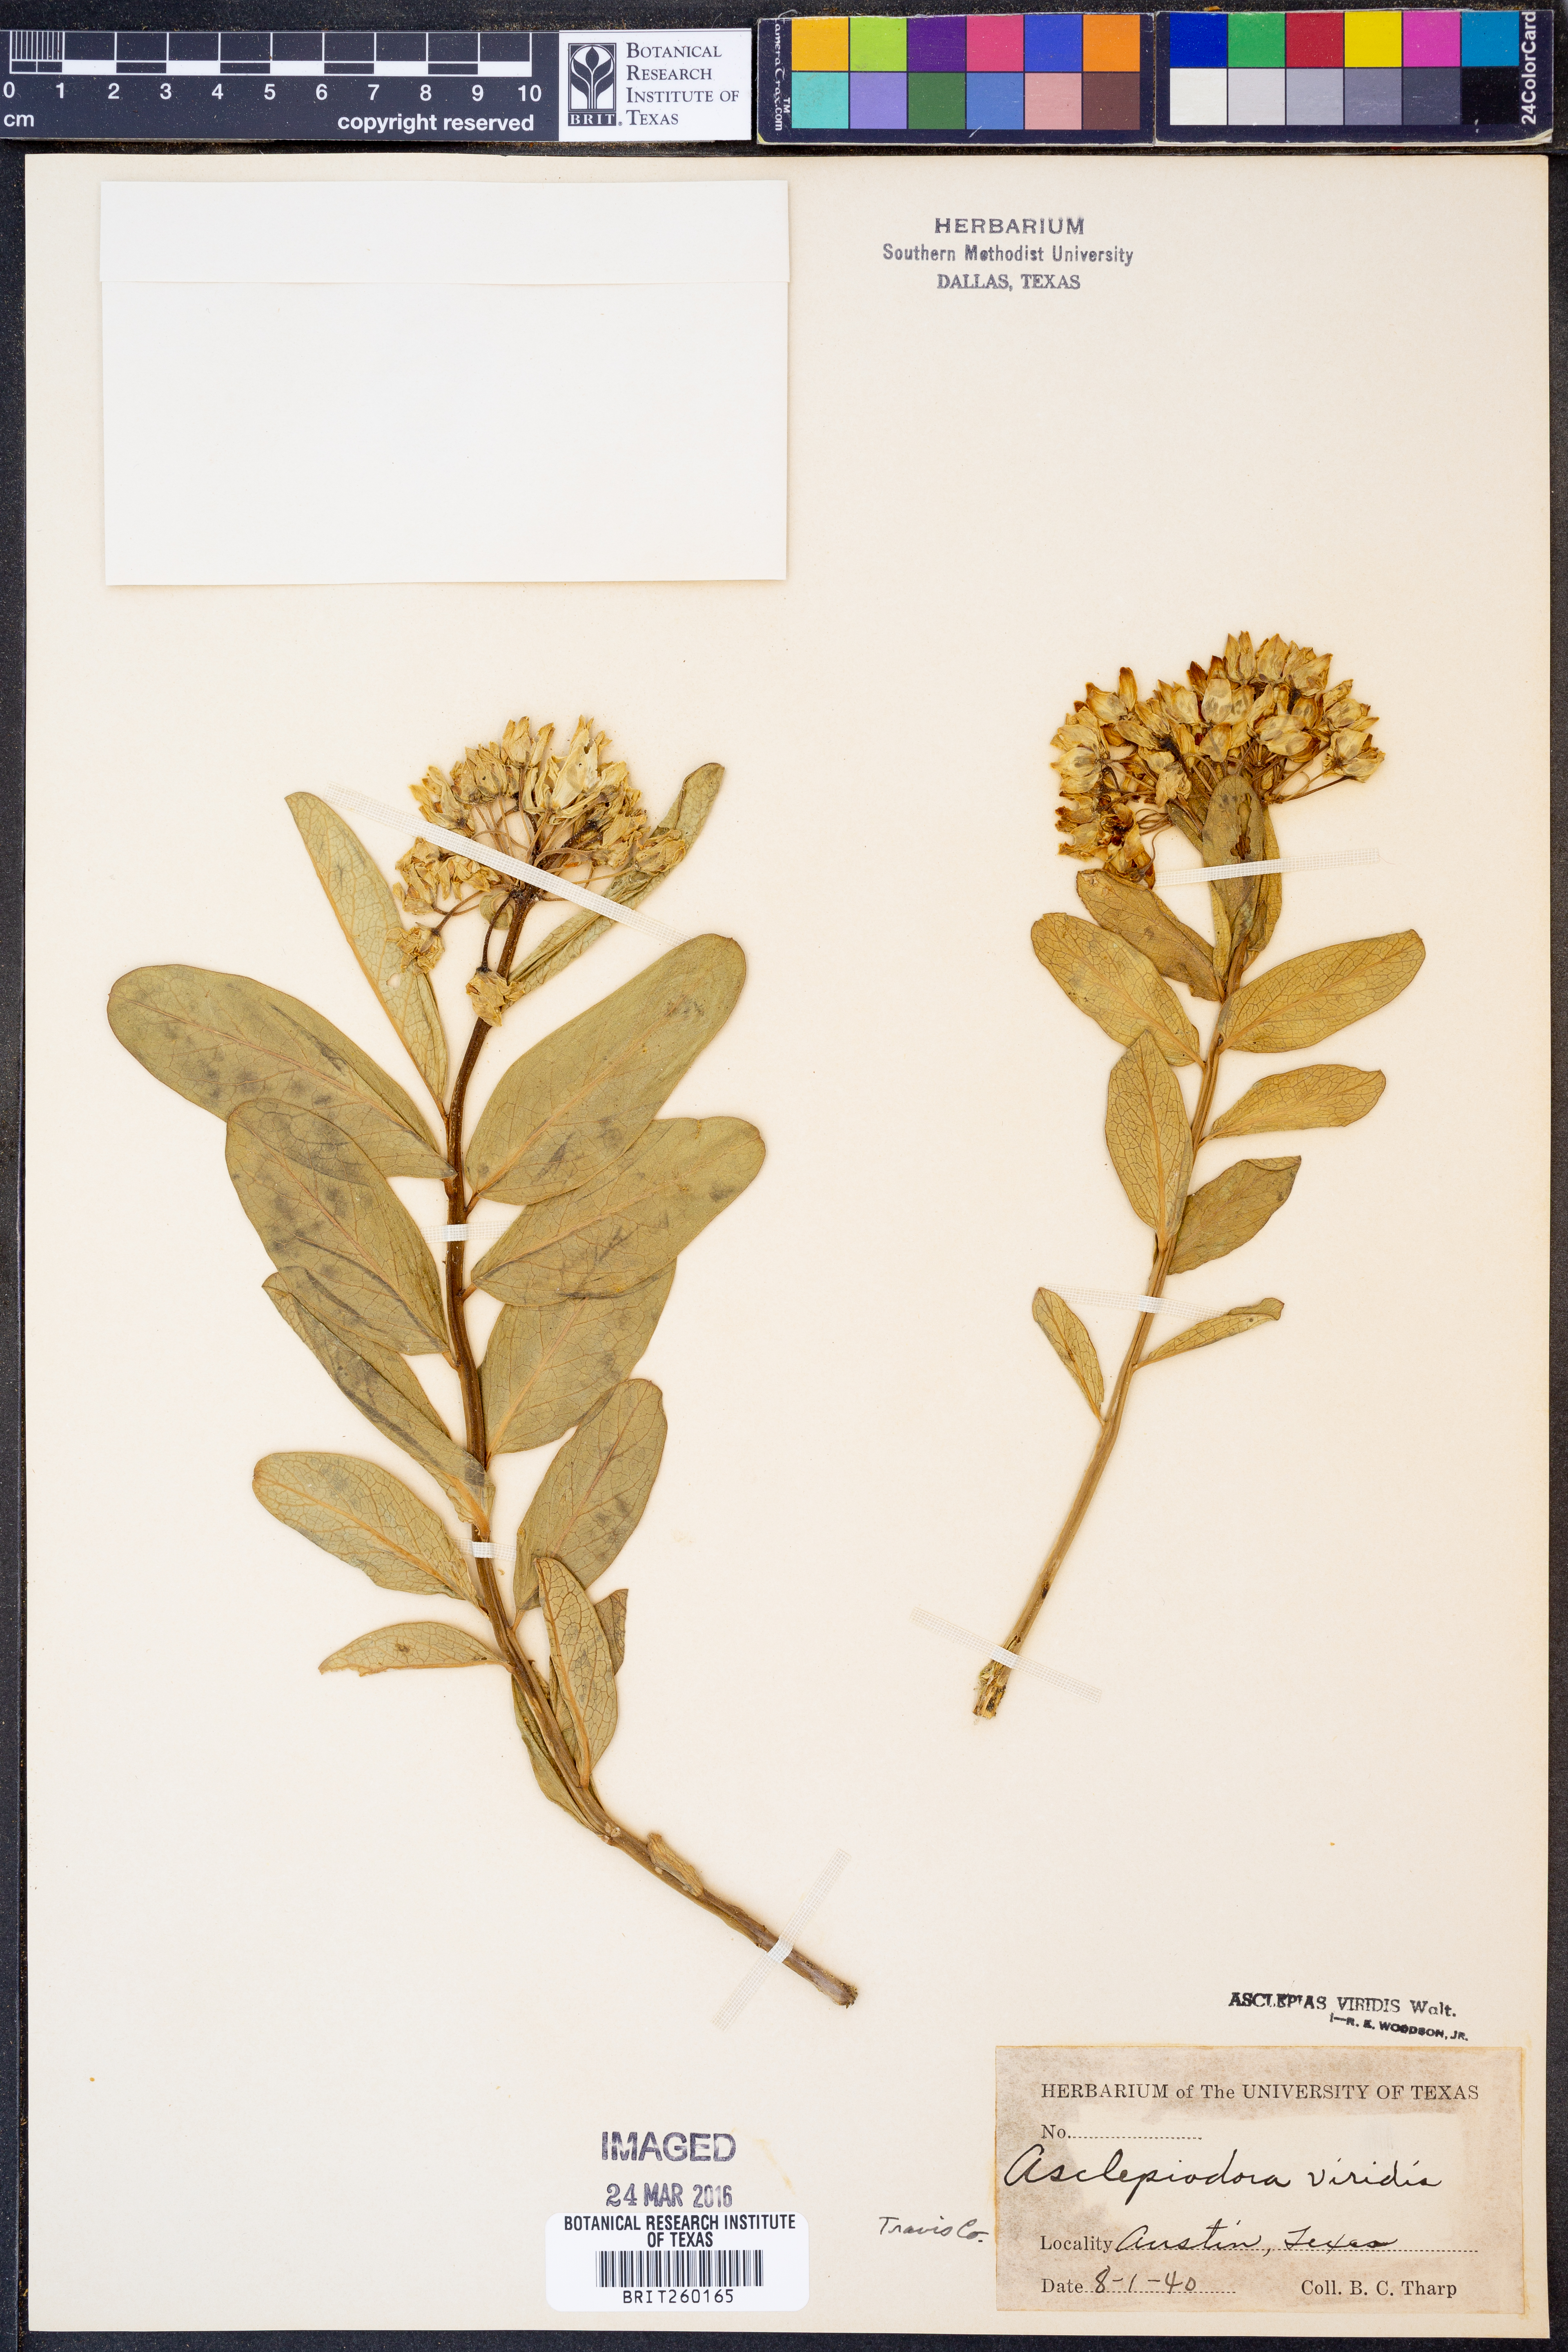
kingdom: Plantae
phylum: Tracheophyta
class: Magnoliopsida
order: Gentianales
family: Apocynaceae
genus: Asclepias
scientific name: Asclepias viridis
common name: Antelope-horns
